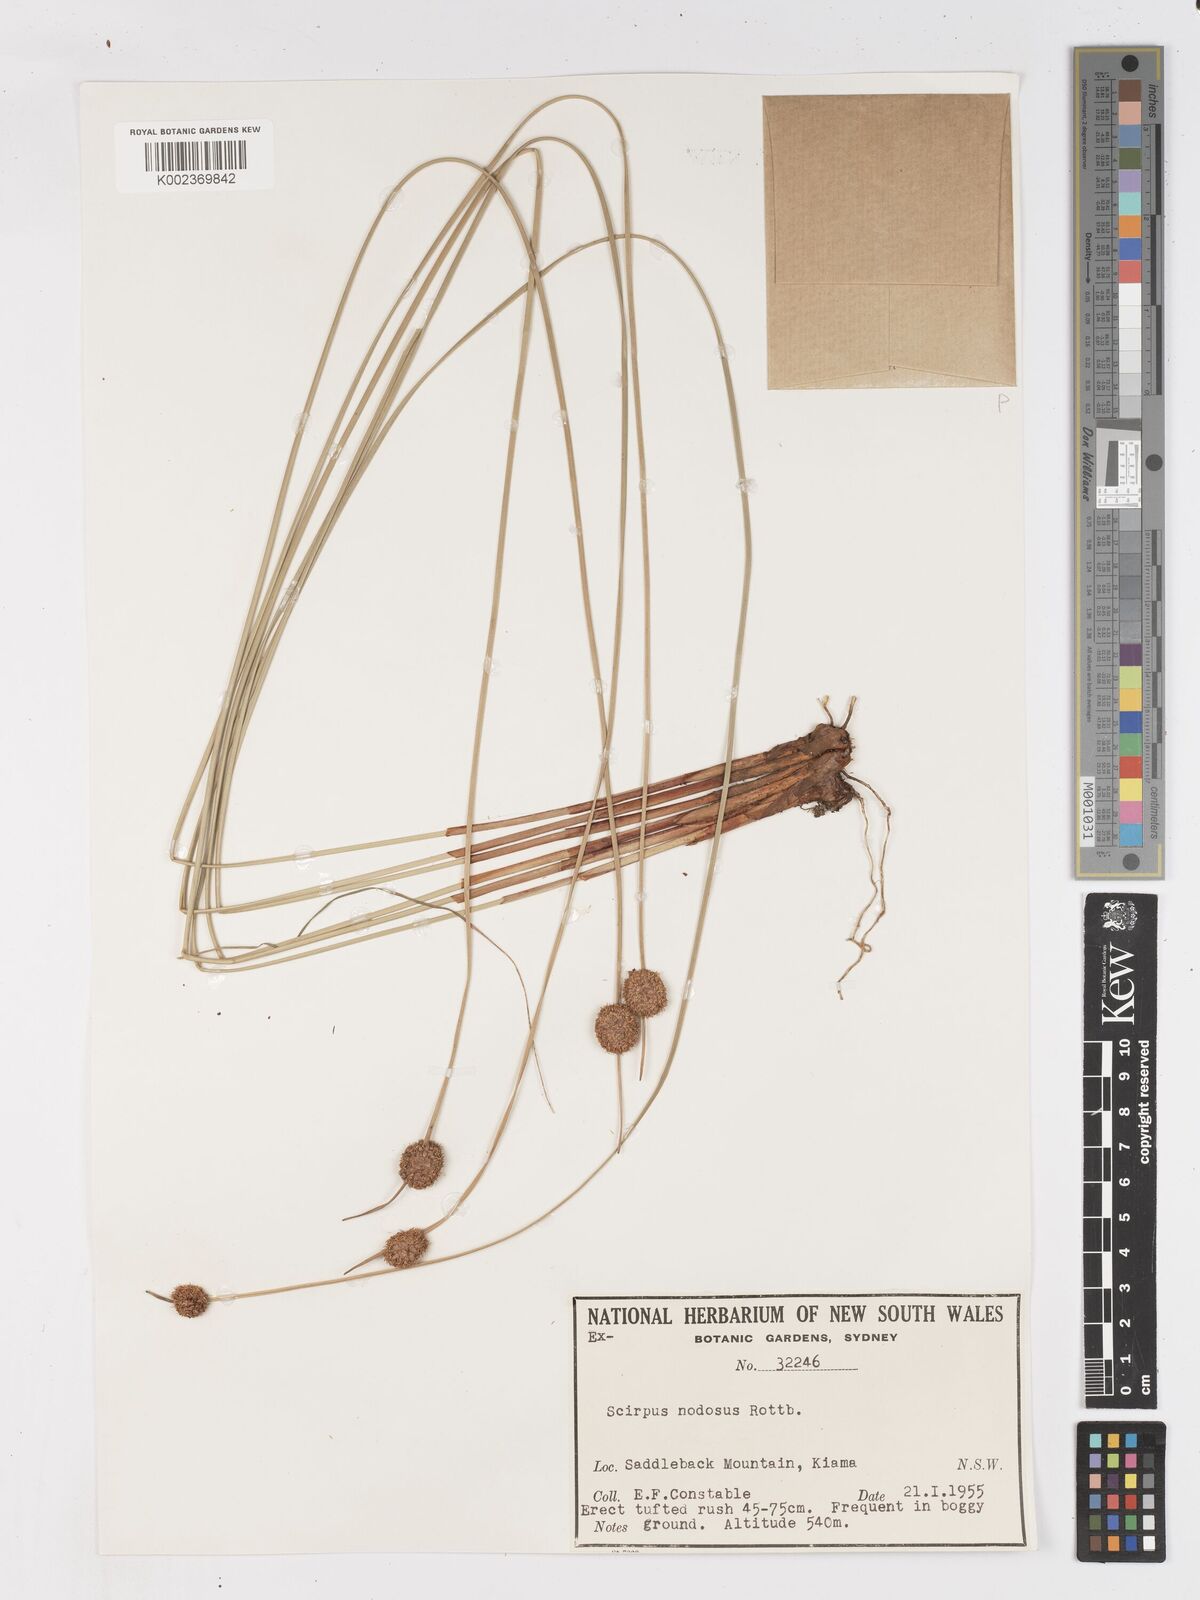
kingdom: Plantae
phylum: Tracheophyta
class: Liliopsida
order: Poales
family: Cyperaceae
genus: Ficinia
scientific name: Ficinia nodosa
